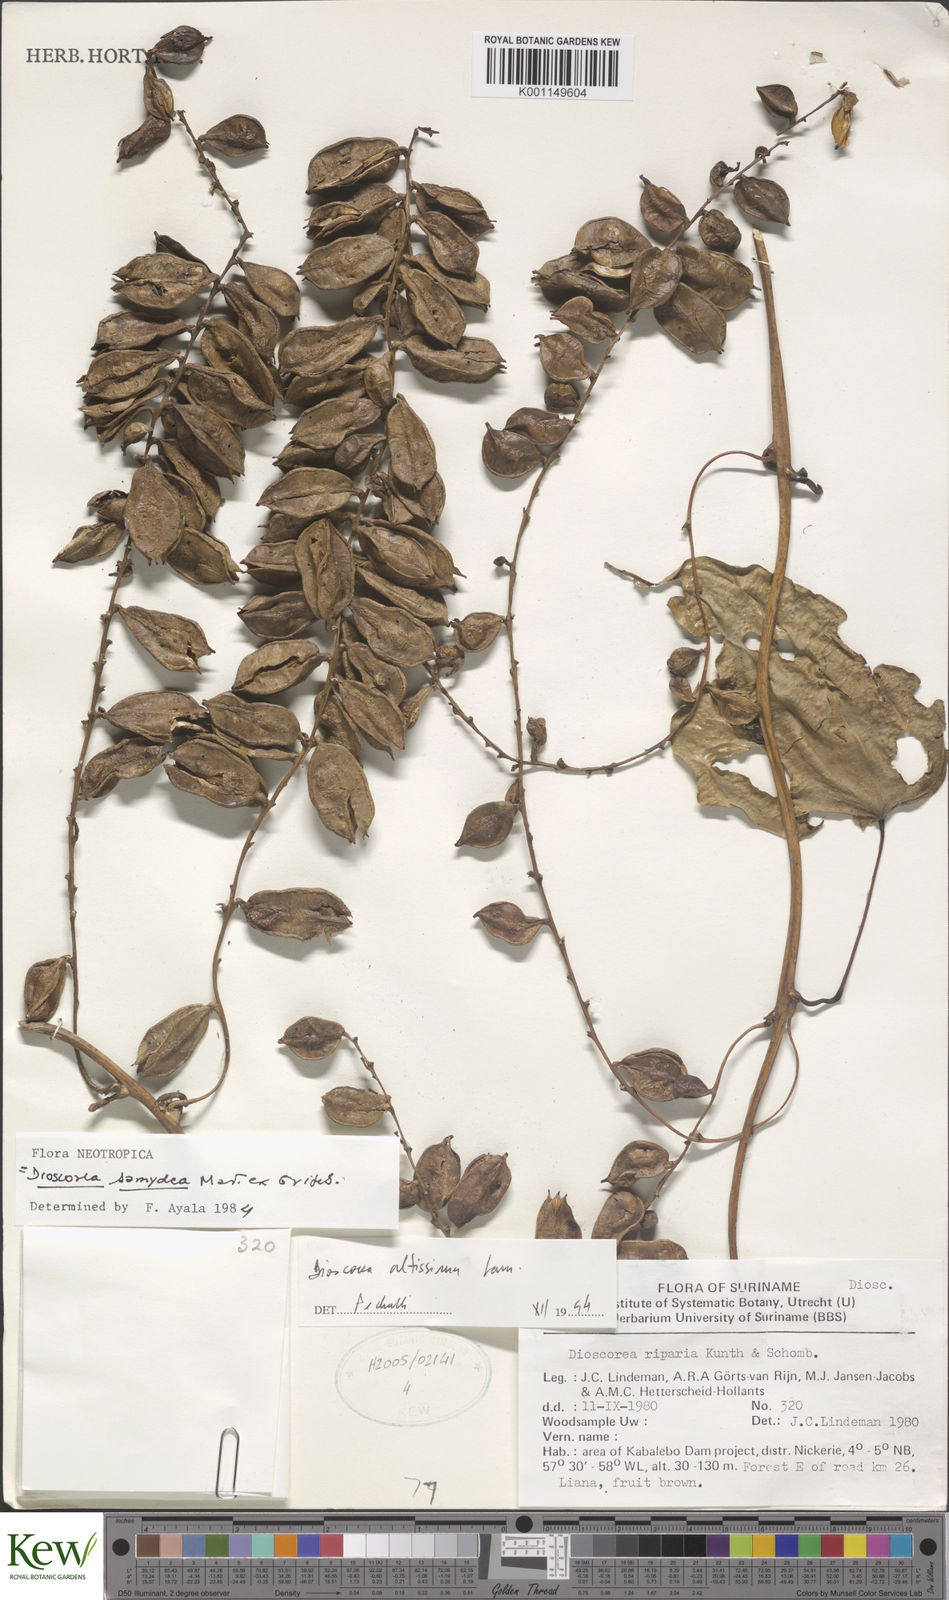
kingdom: Plantae
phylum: Tracheophyta
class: Liliopsida
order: Dioscoreales
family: Dioscoreaceae
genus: Dioscorea
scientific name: Dioscorea chondrocarpa
